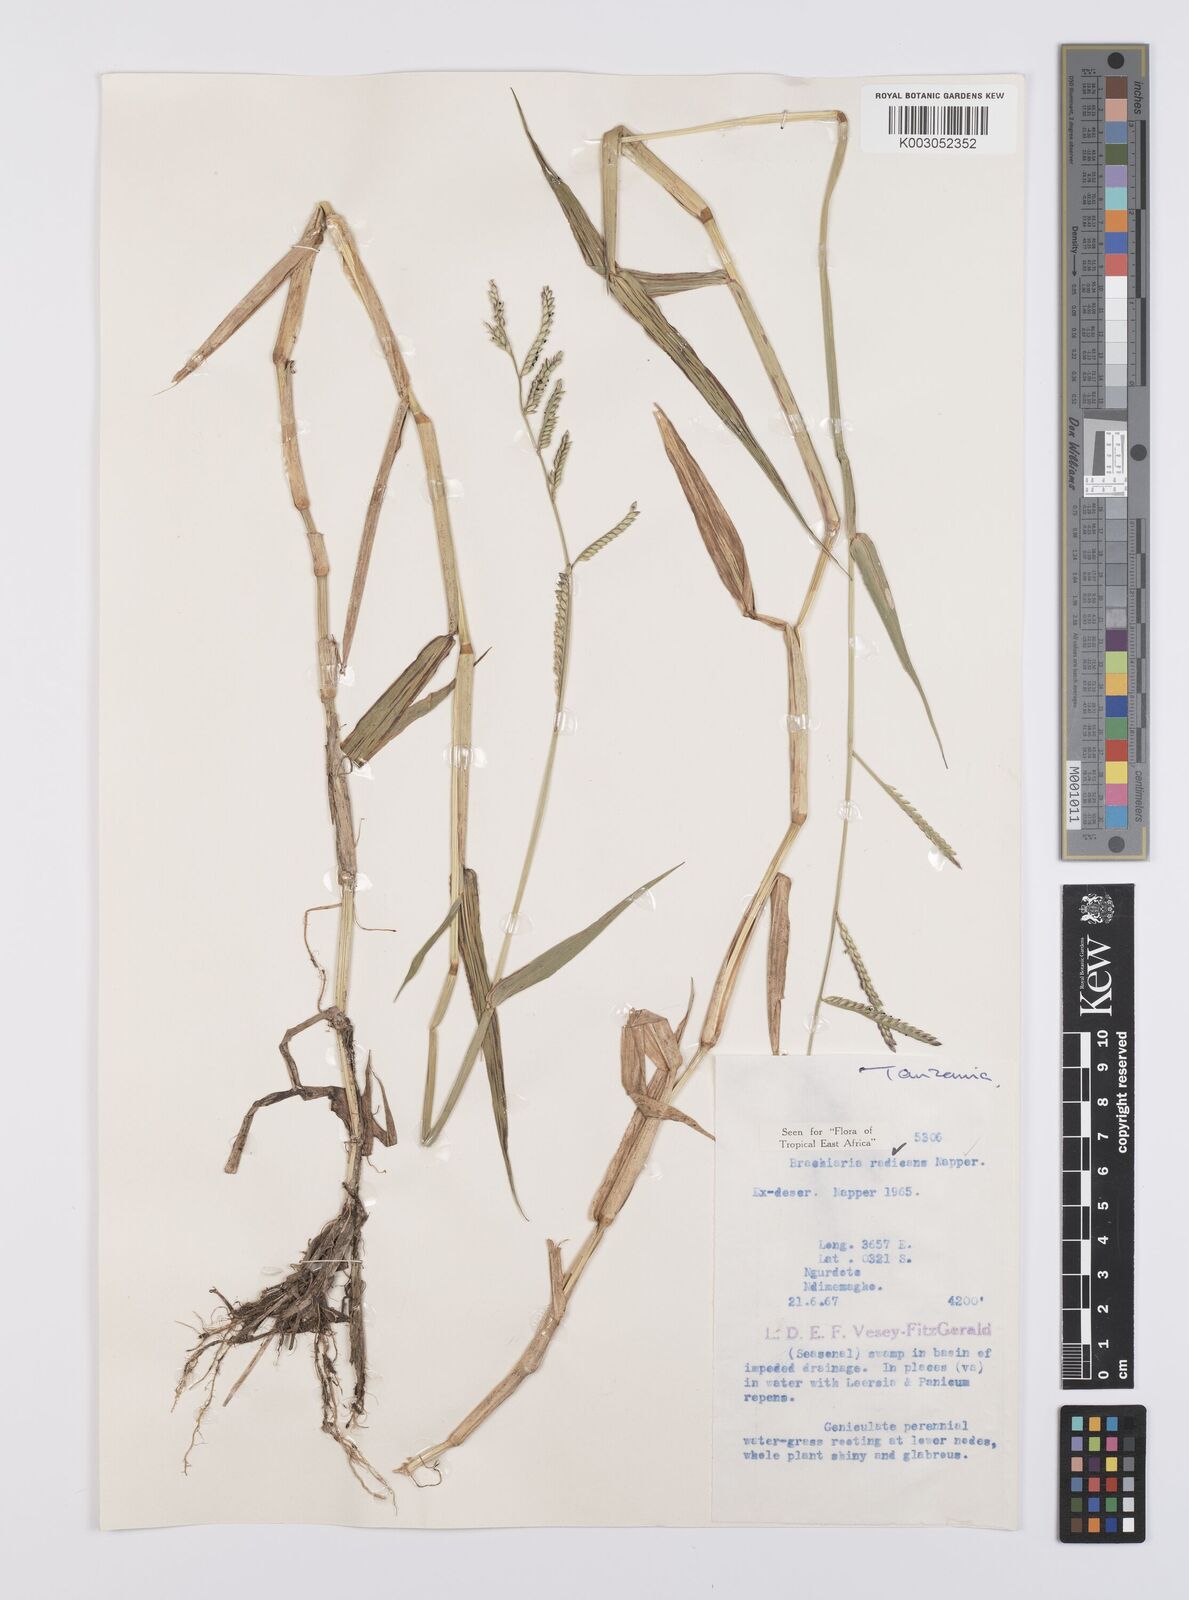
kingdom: Plantae
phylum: Tracheophyta
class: Liliopsida
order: Poales
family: Poaceae
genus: Urochloa
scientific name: Urochloa arrecta
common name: African signalgrass
